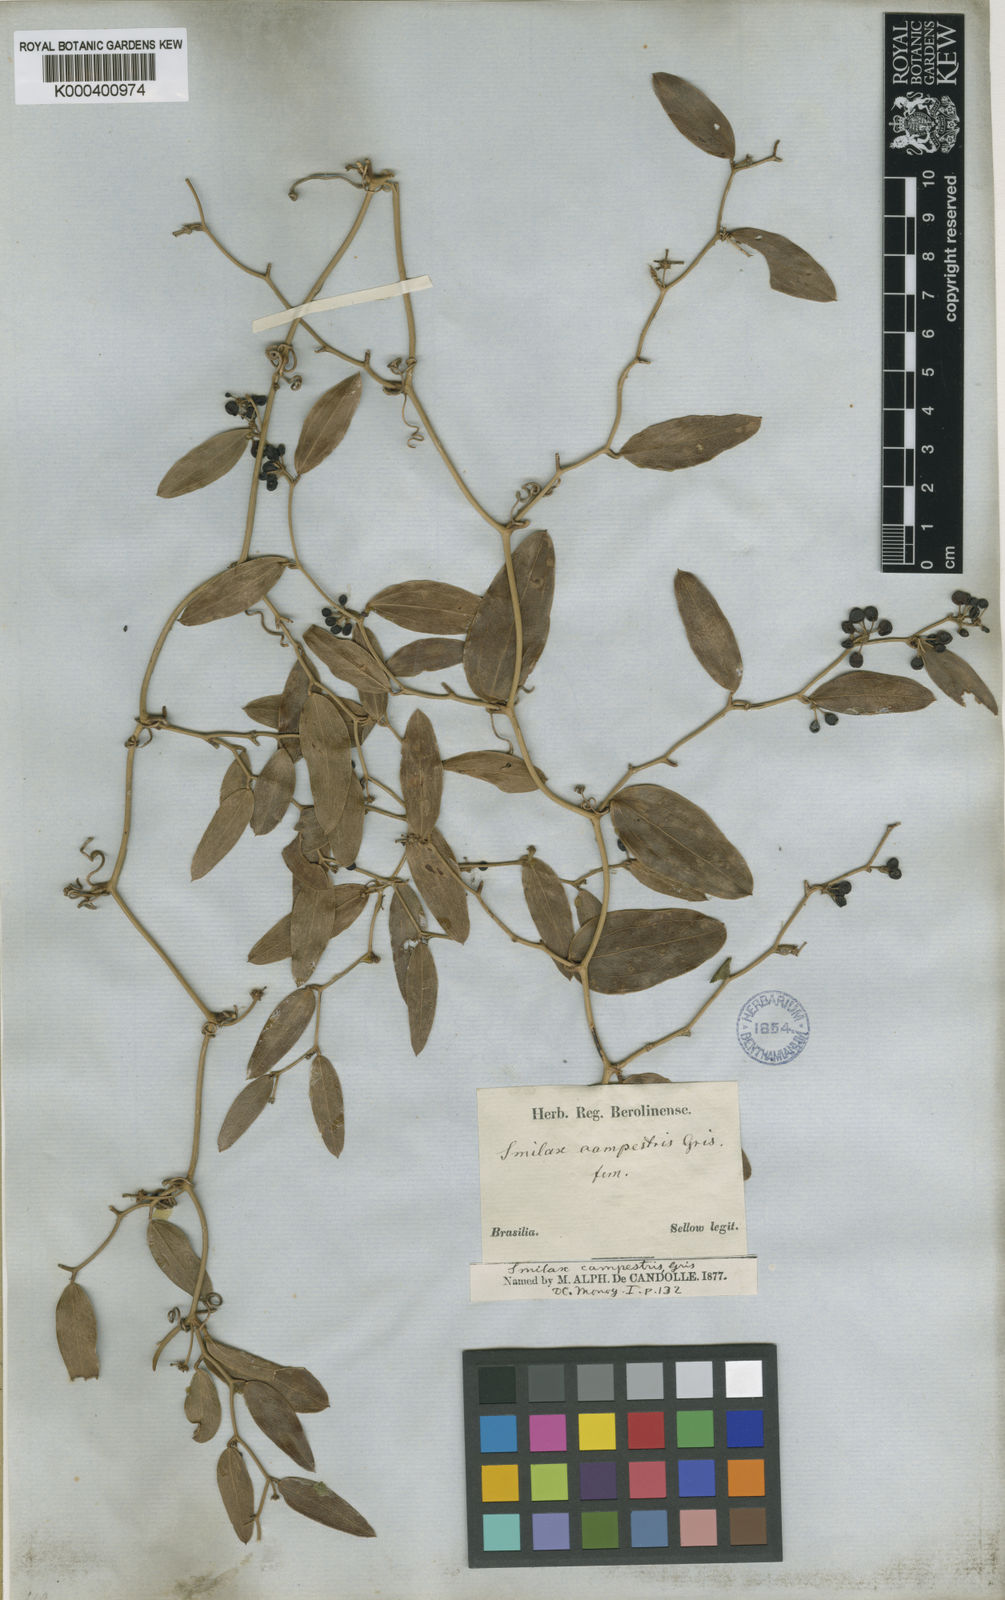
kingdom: Plantae
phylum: Tracheophyta
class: Liliopsida
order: Liliales
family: Smilacaceae
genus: Smilax
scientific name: Smilax campestris
